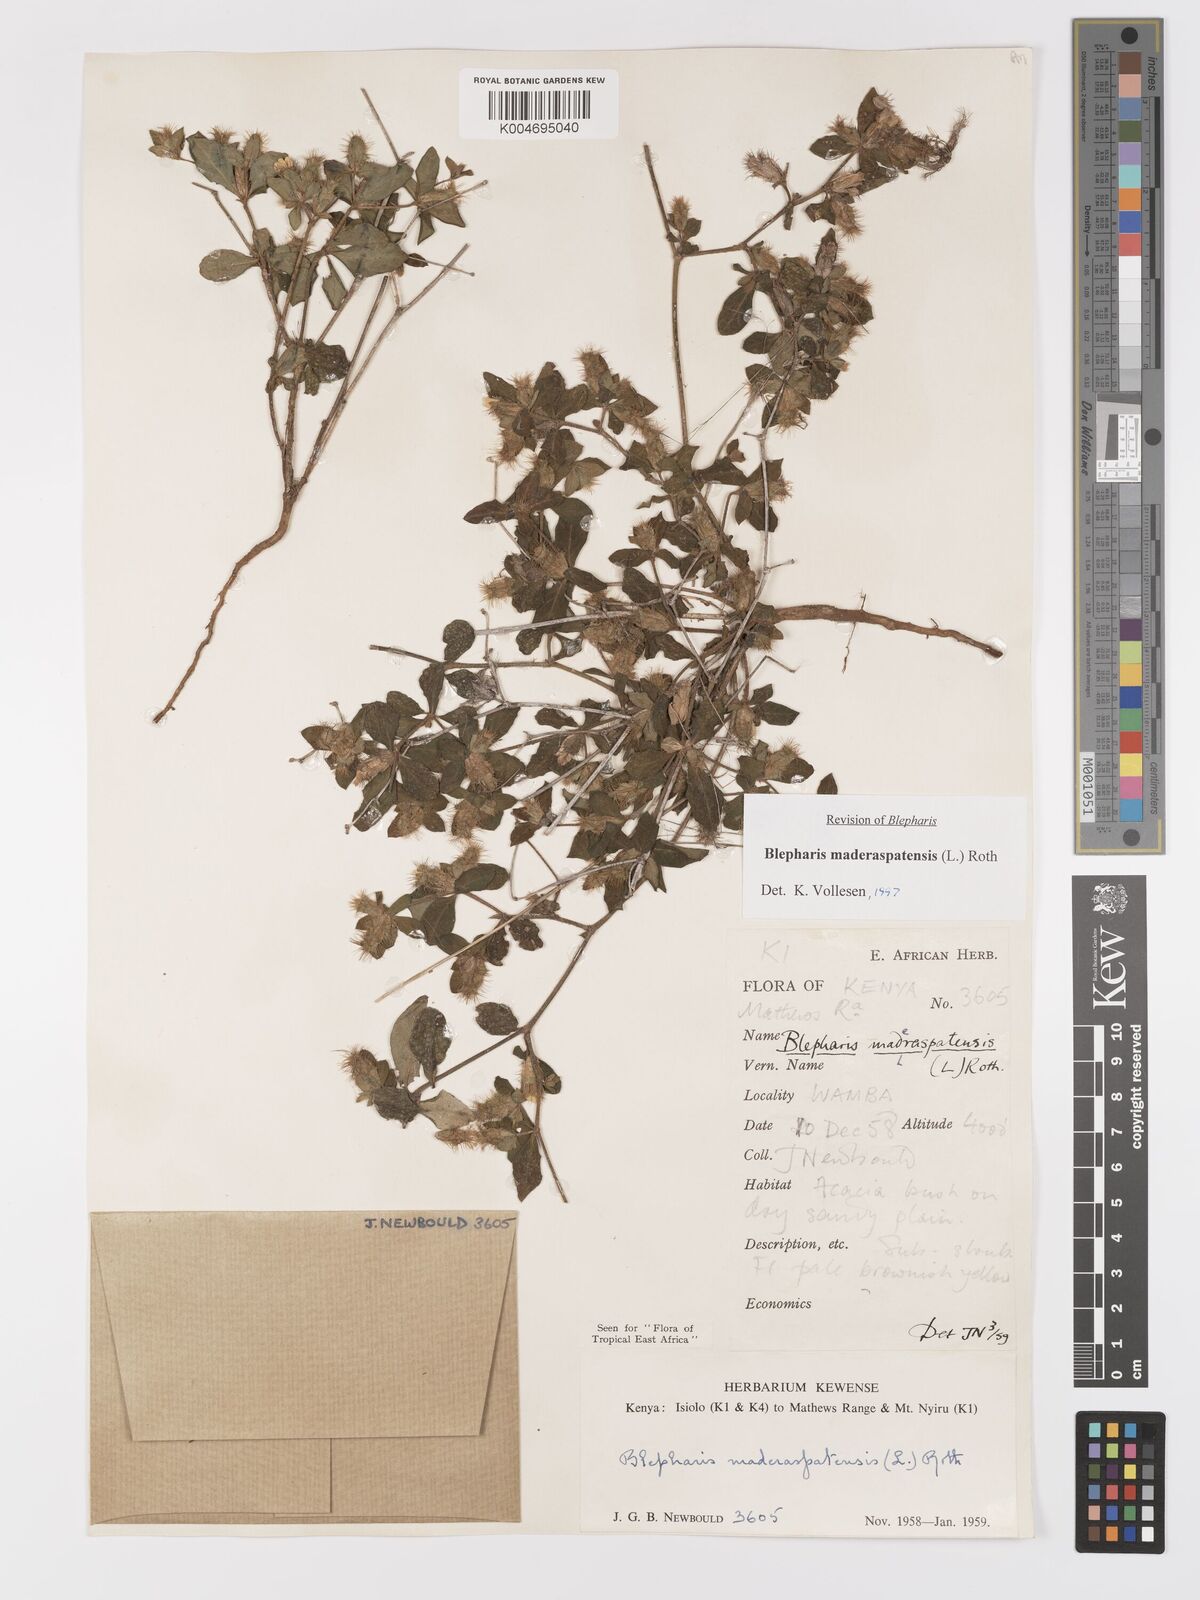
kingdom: Plantae
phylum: Tracheophyta
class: Magnoliopsida
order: Lamiales
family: Acanthaceae
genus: Blepharis
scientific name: Blepharis maderaspatensis
